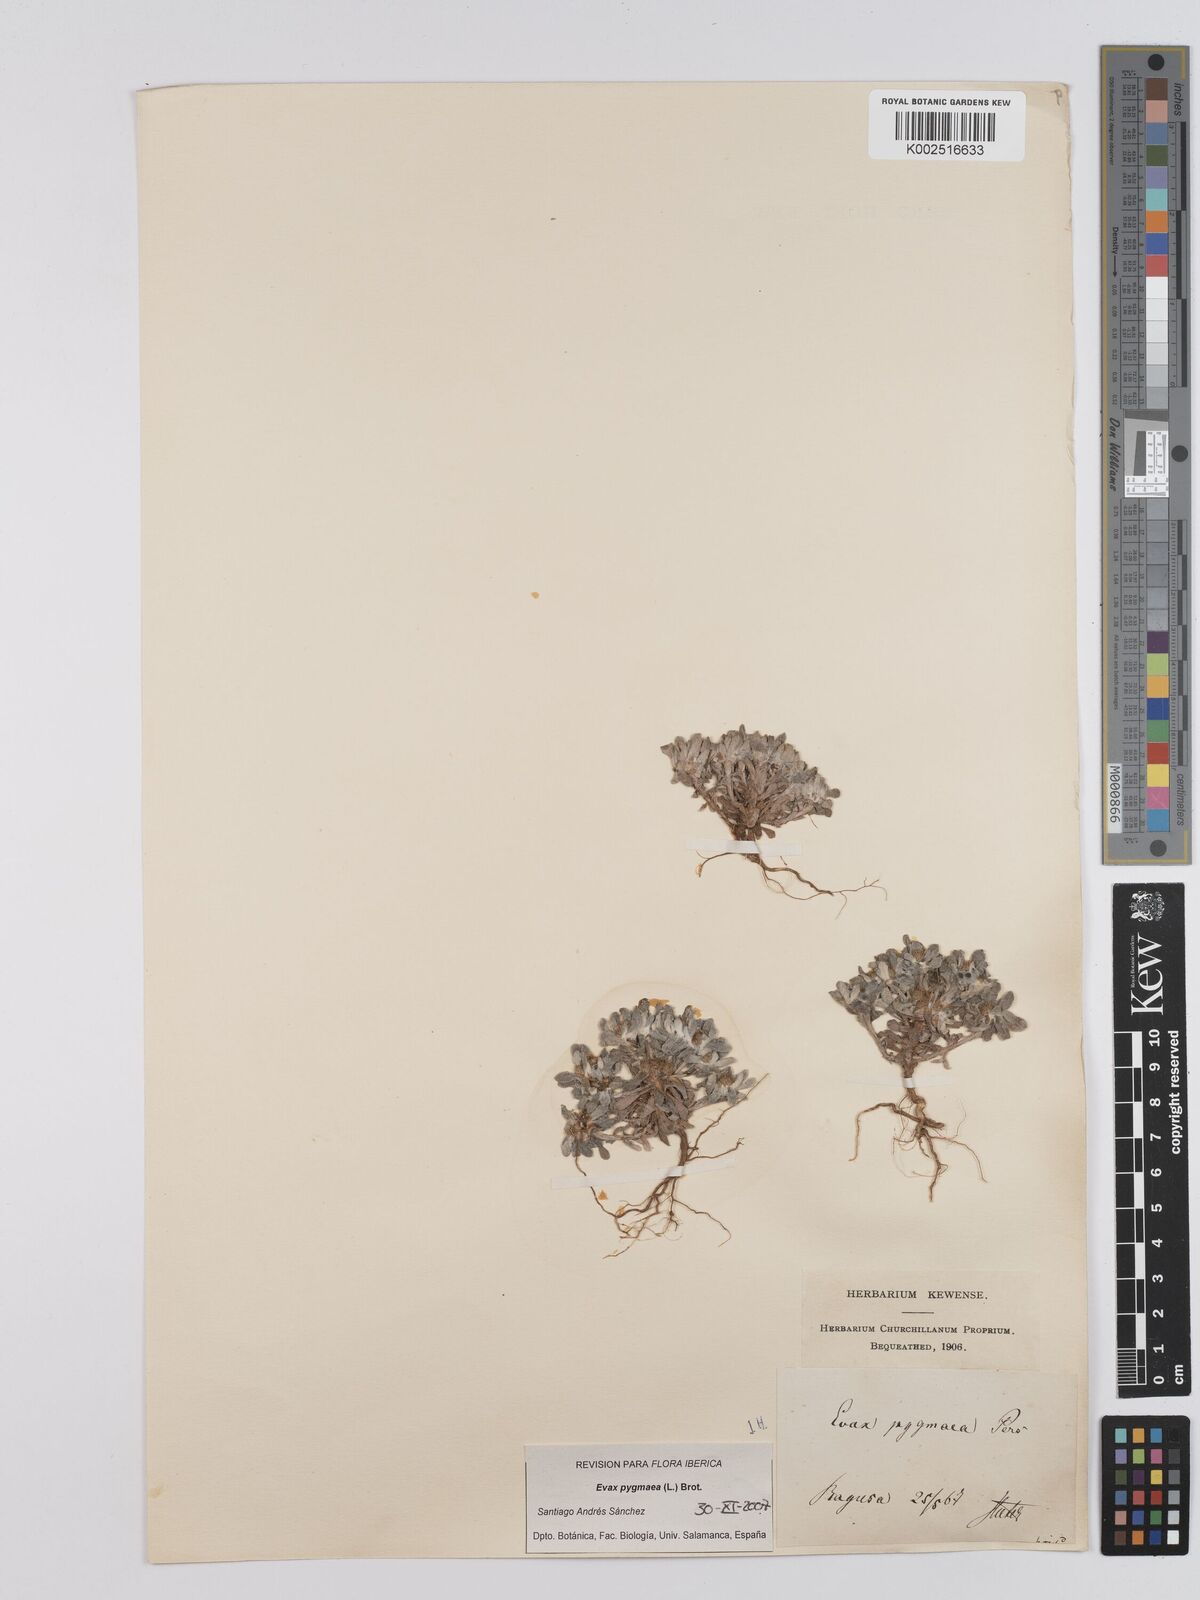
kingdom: Plantae
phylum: Tracheophyta
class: Magnoliopsida
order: Asterales
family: Asteraceae
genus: Filago
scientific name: Filago pygmaea
